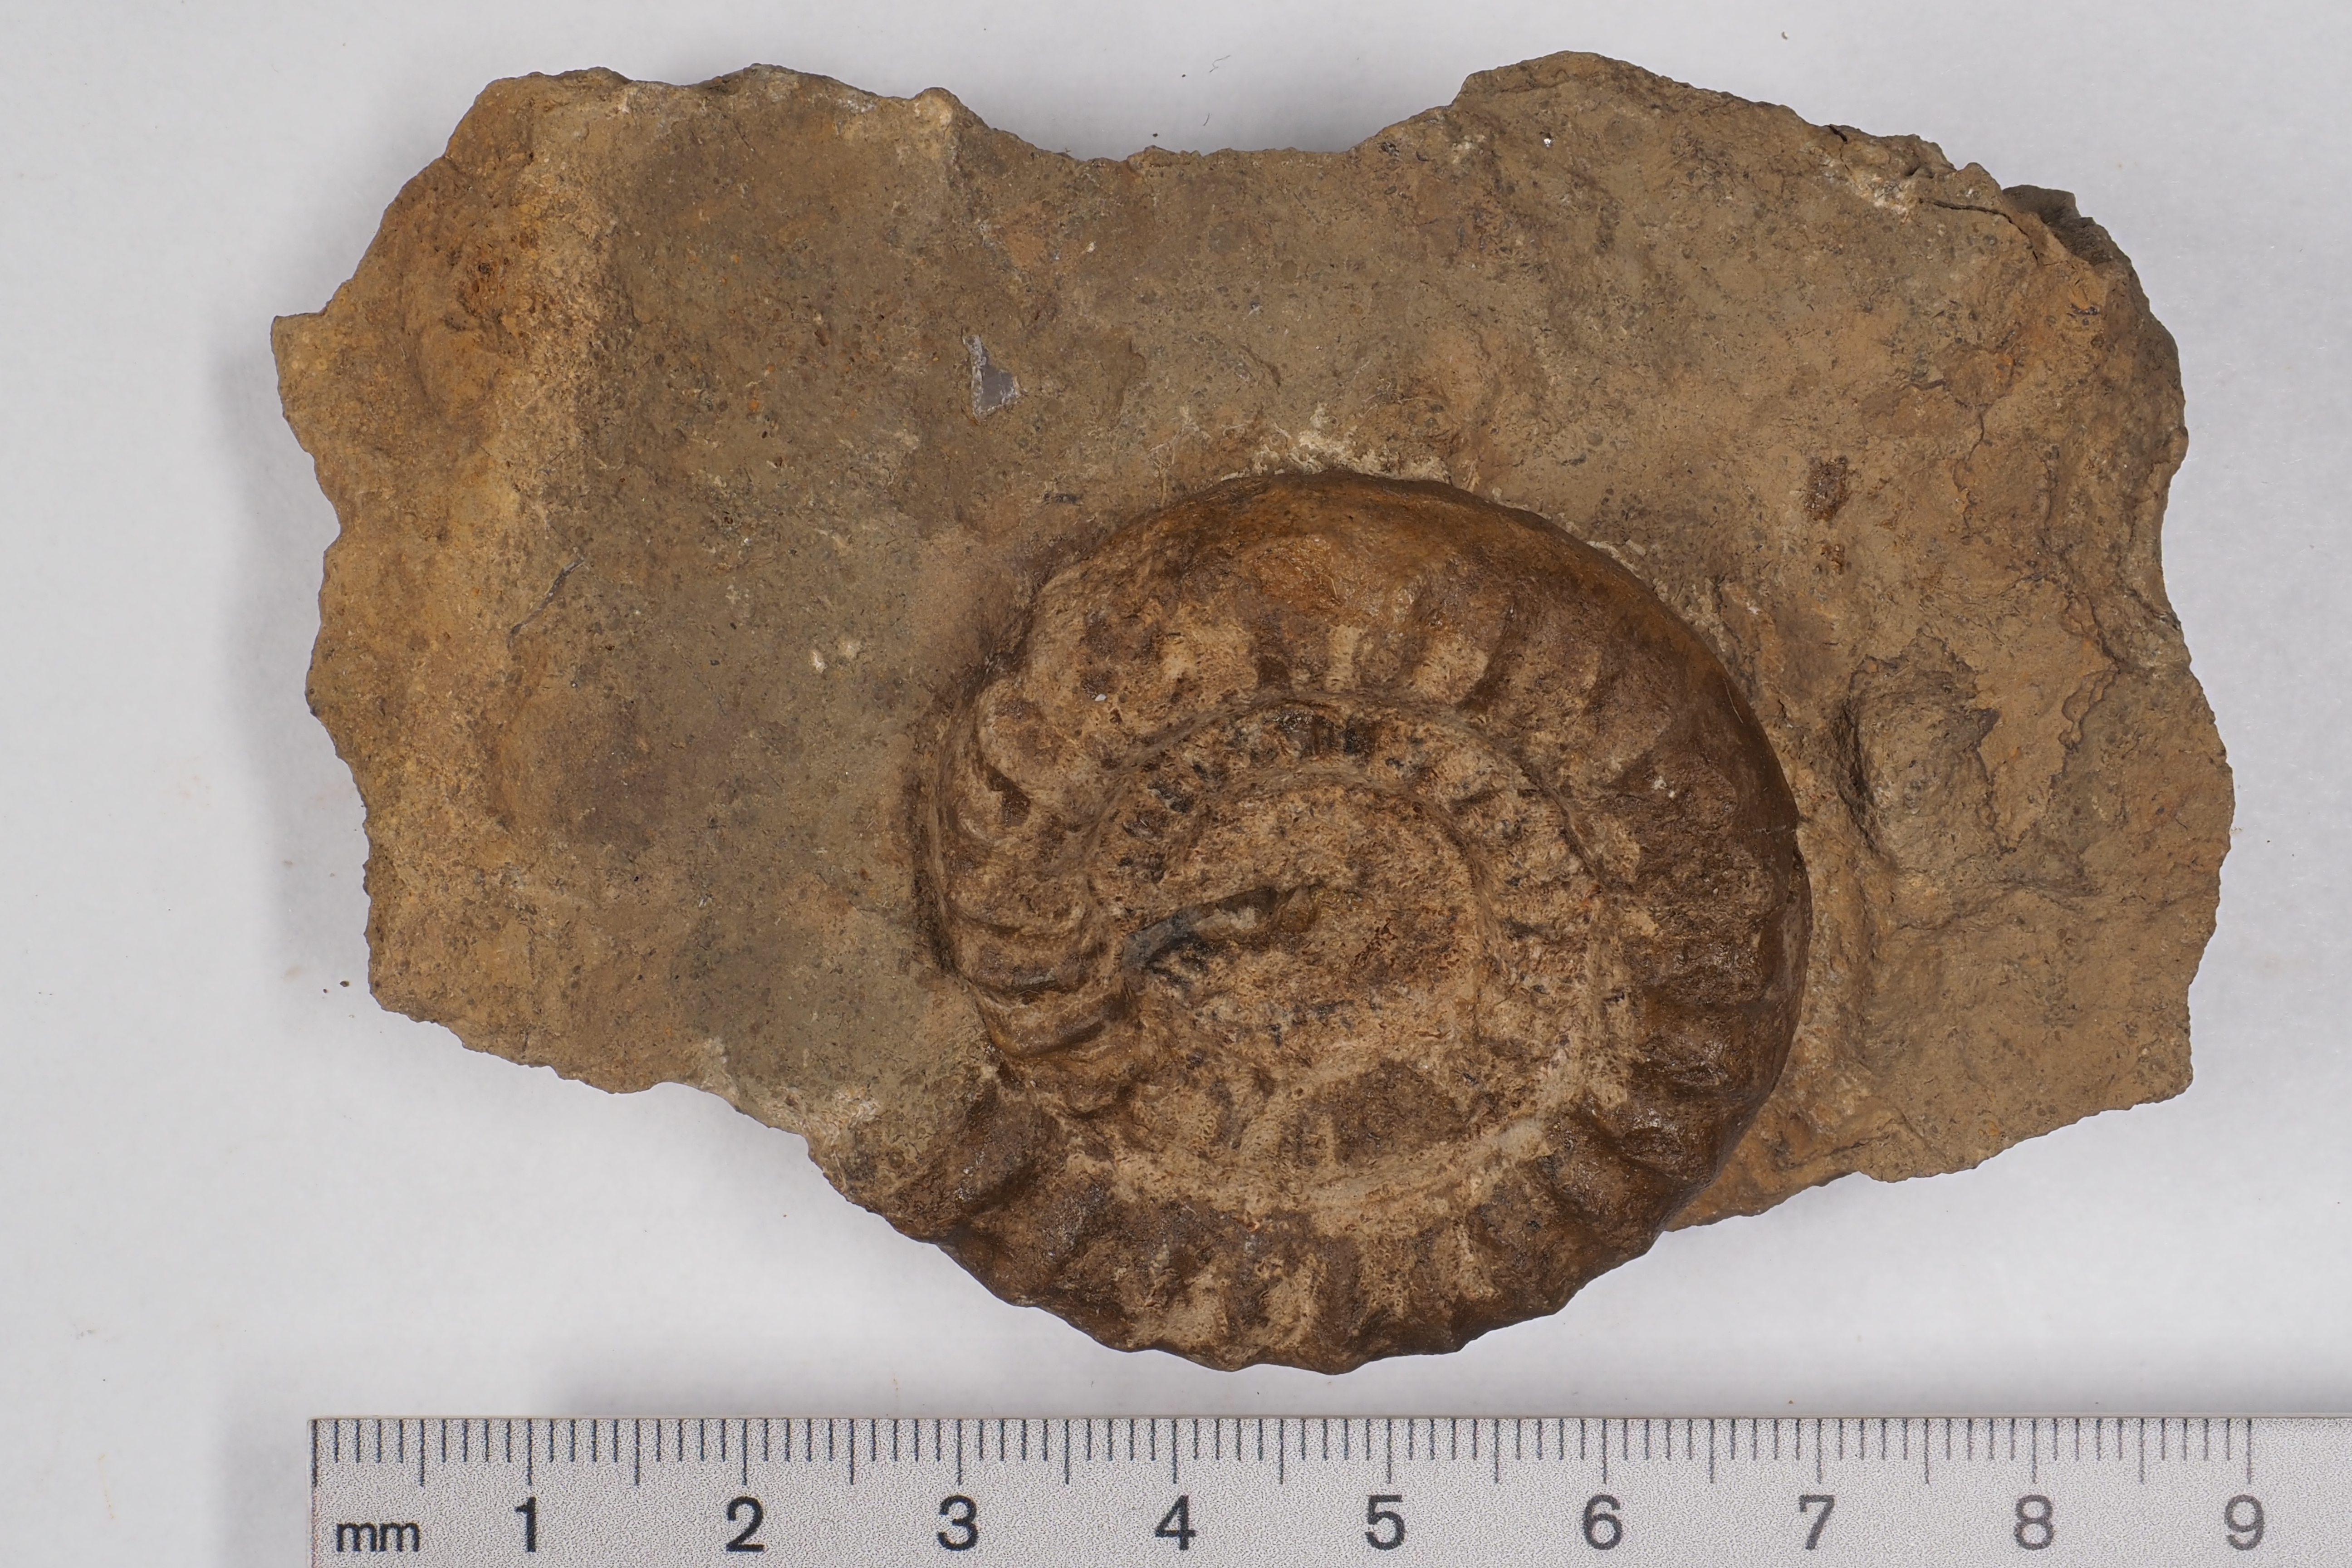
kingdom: Animalia
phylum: Mollusca
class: Cephalopoda
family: Echioceratidae
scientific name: Echioceratidae
